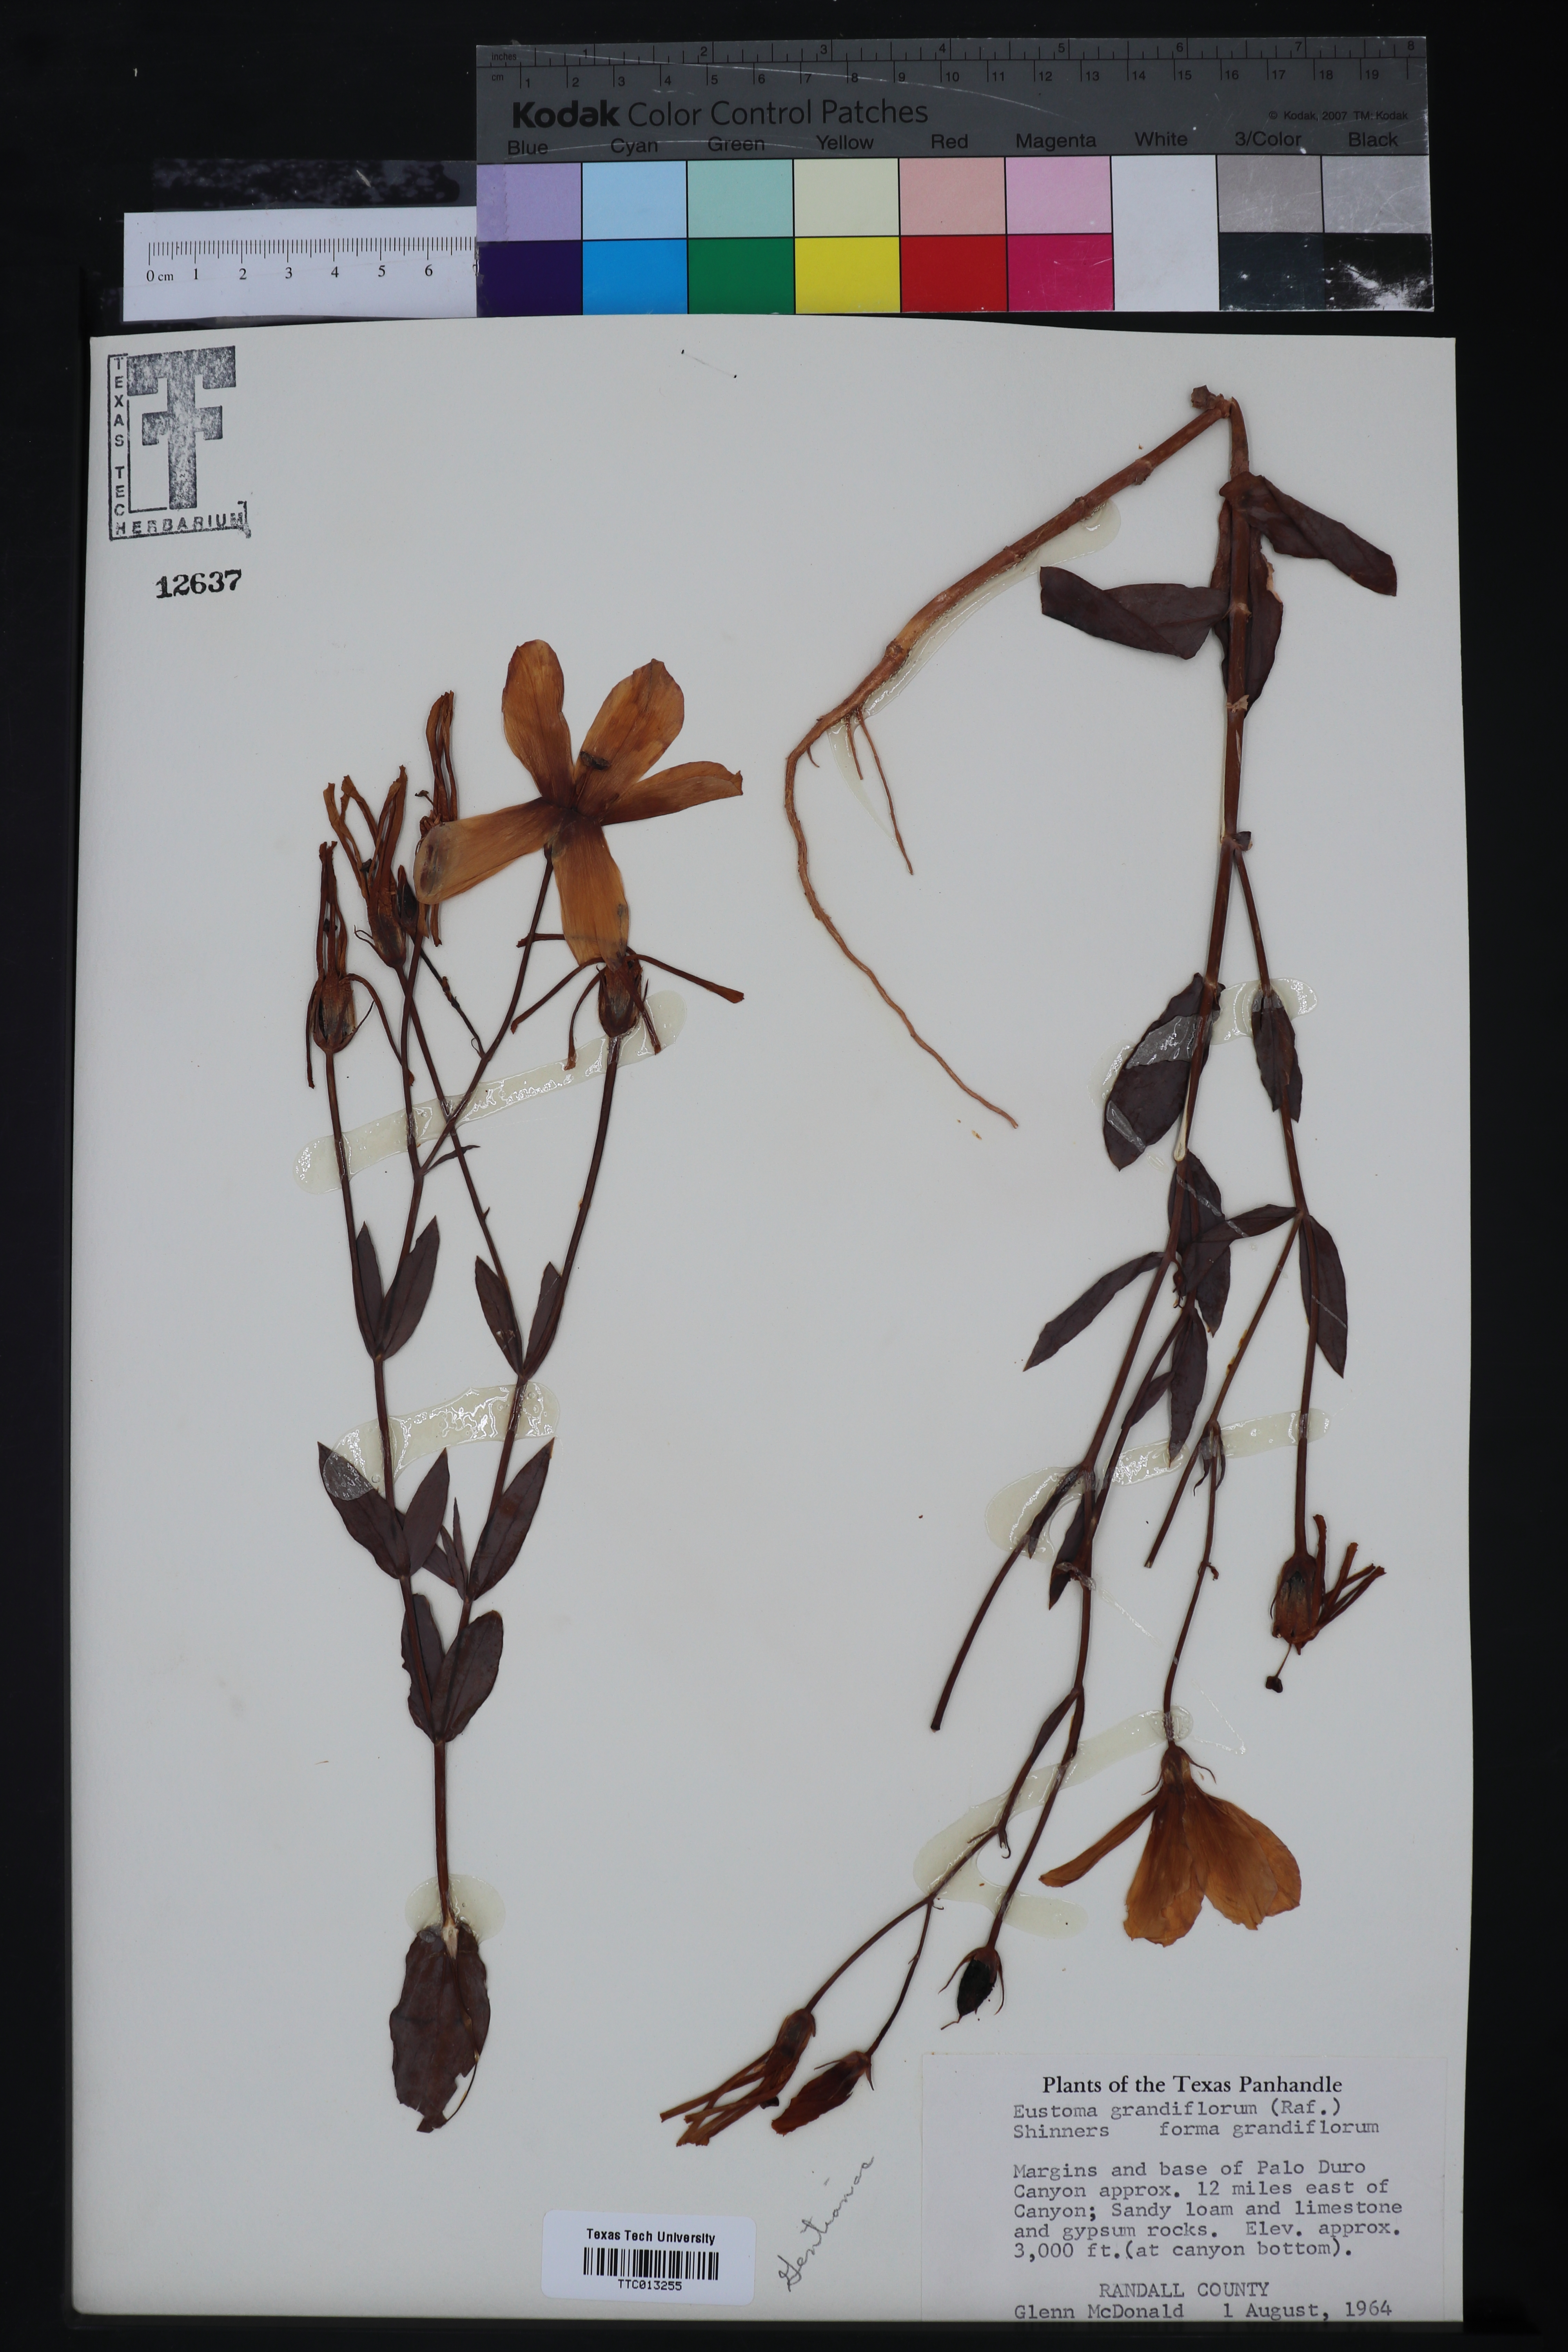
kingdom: Plantae
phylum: Tracheophyta
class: Magnoliopsida
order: Gentianales
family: Gentianaceae
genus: Eustoma
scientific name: Eustoma russellianum
